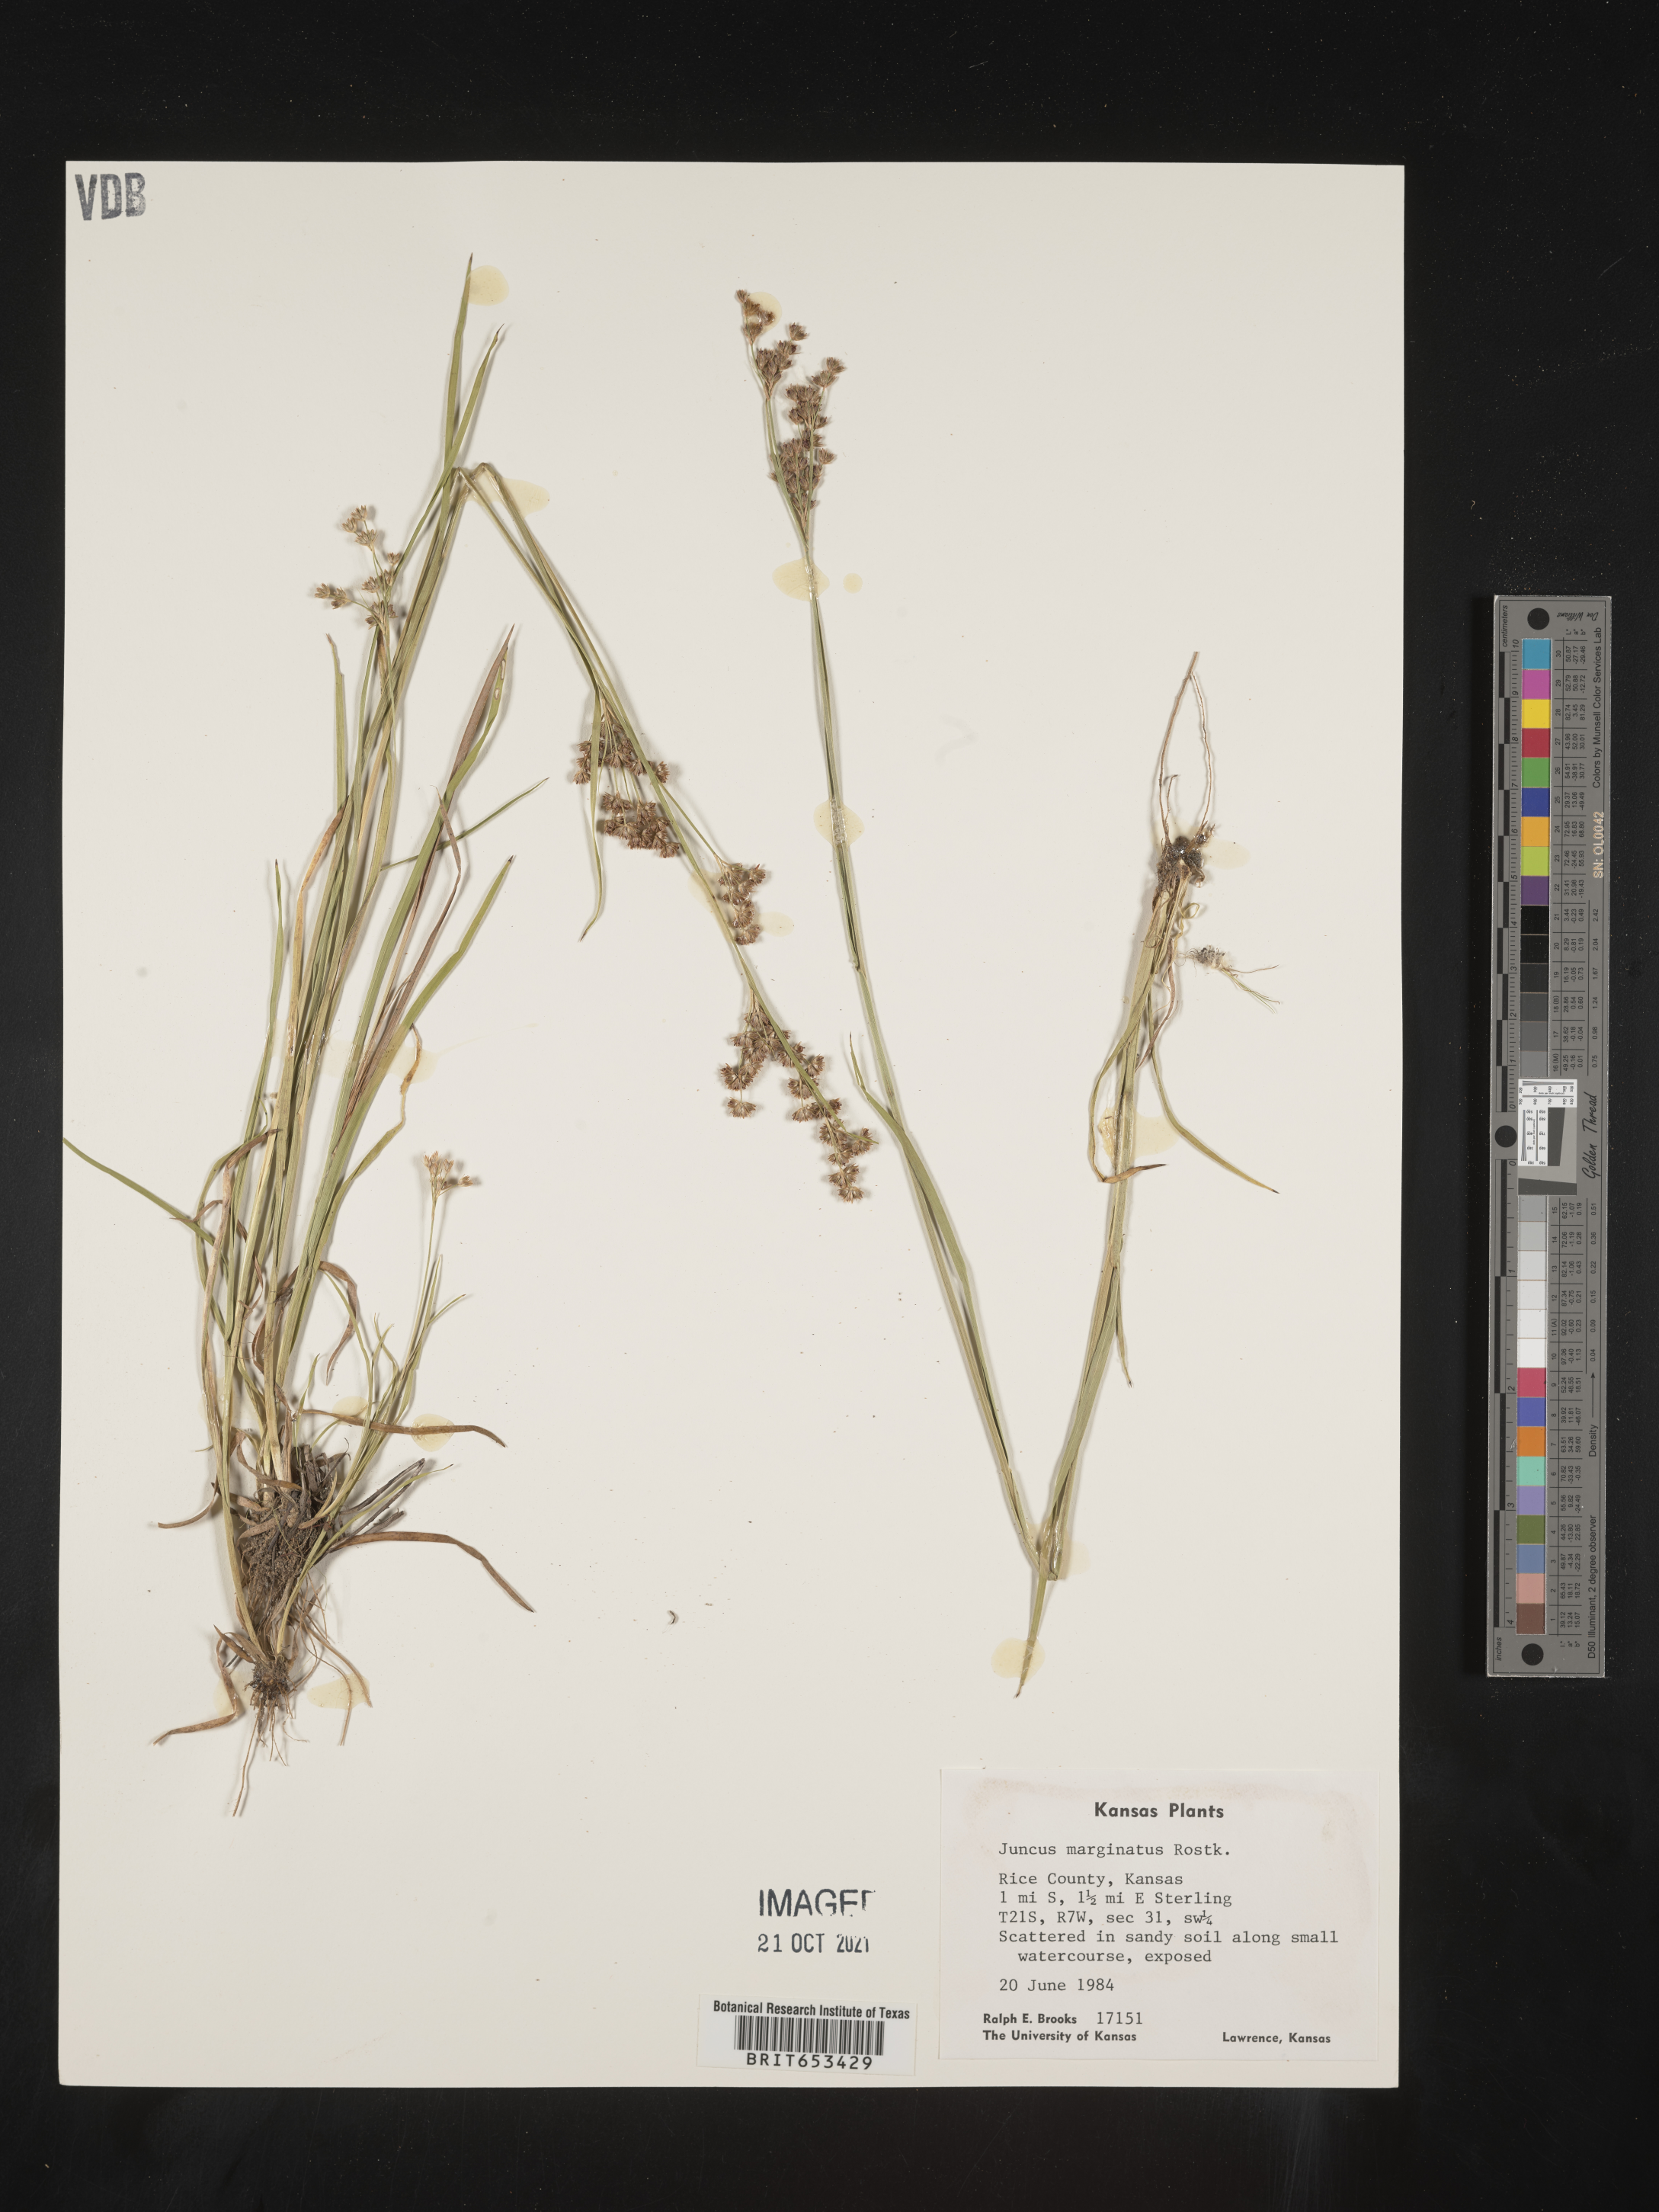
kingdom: Plantae
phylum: Tracheophyta
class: Liliopsida
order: Poales
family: Juncaceae
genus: Juncus
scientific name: Juncus marginatus
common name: Grass-leaf rush
